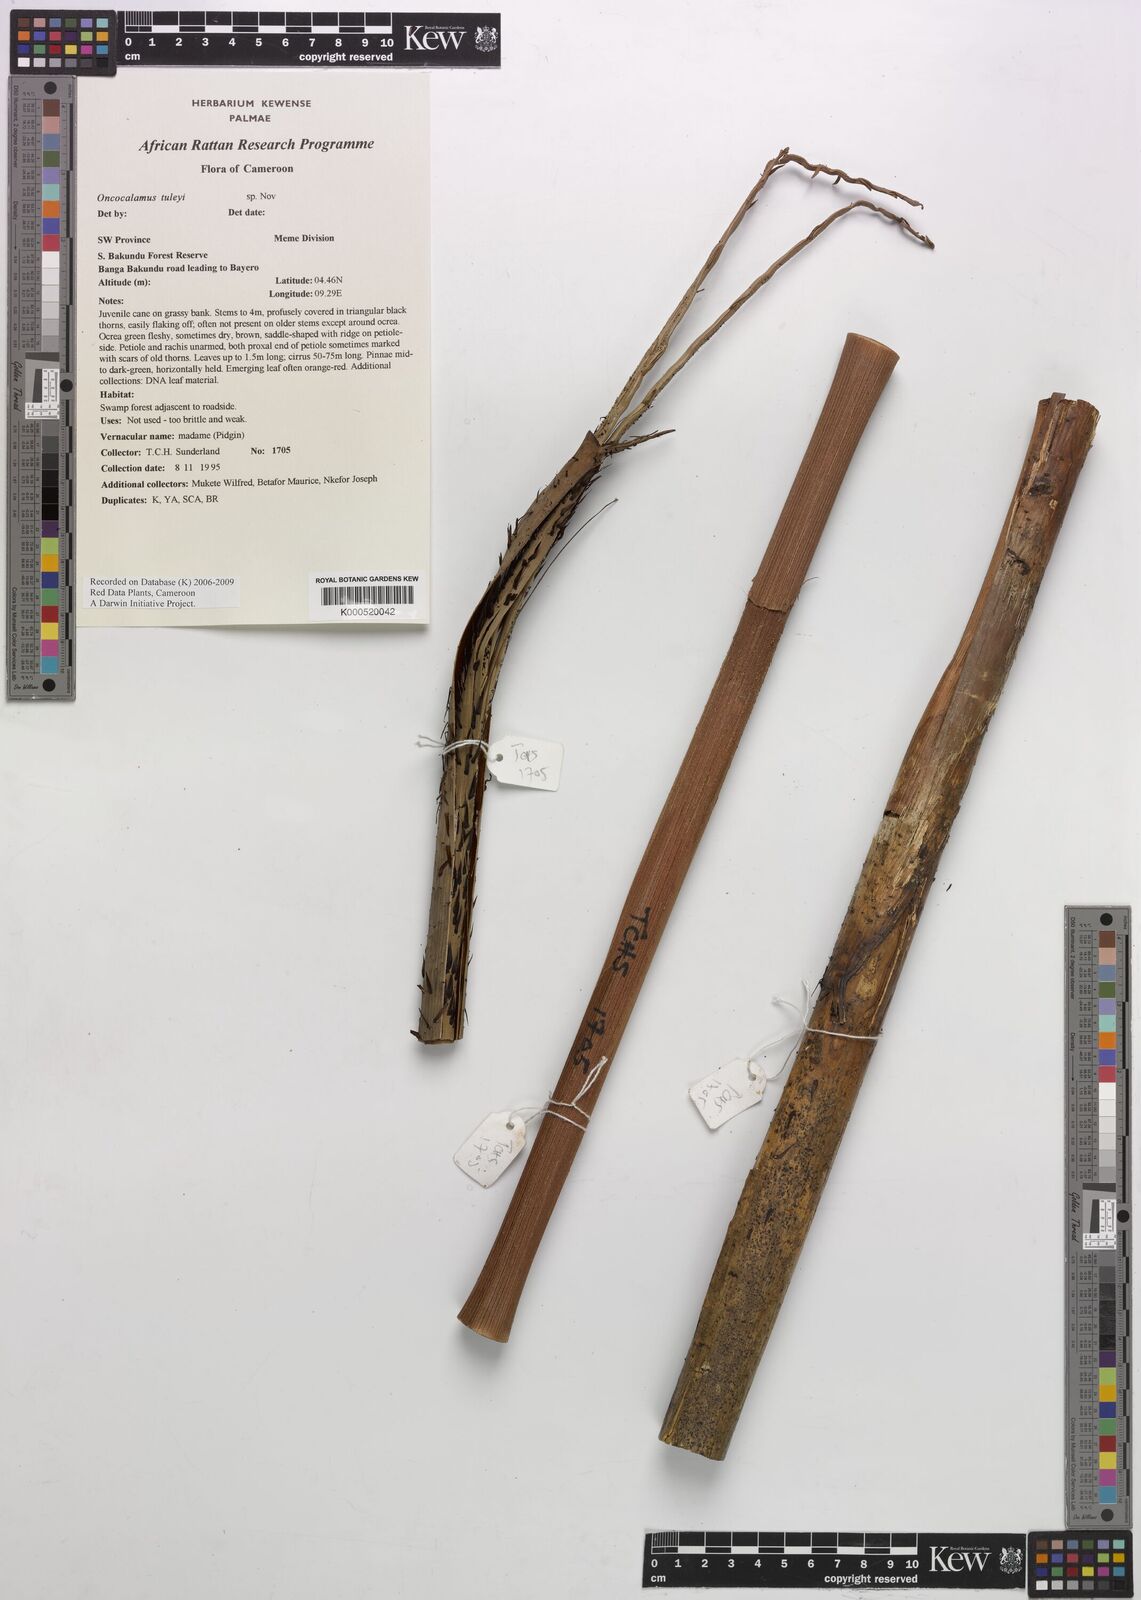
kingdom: Plantae
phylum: Tracheophyta
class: Liliopsida
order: Arecales
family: Arecaceae
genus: Oncocalamus
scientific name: Oncocalamus tuleyi
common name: Rattan
